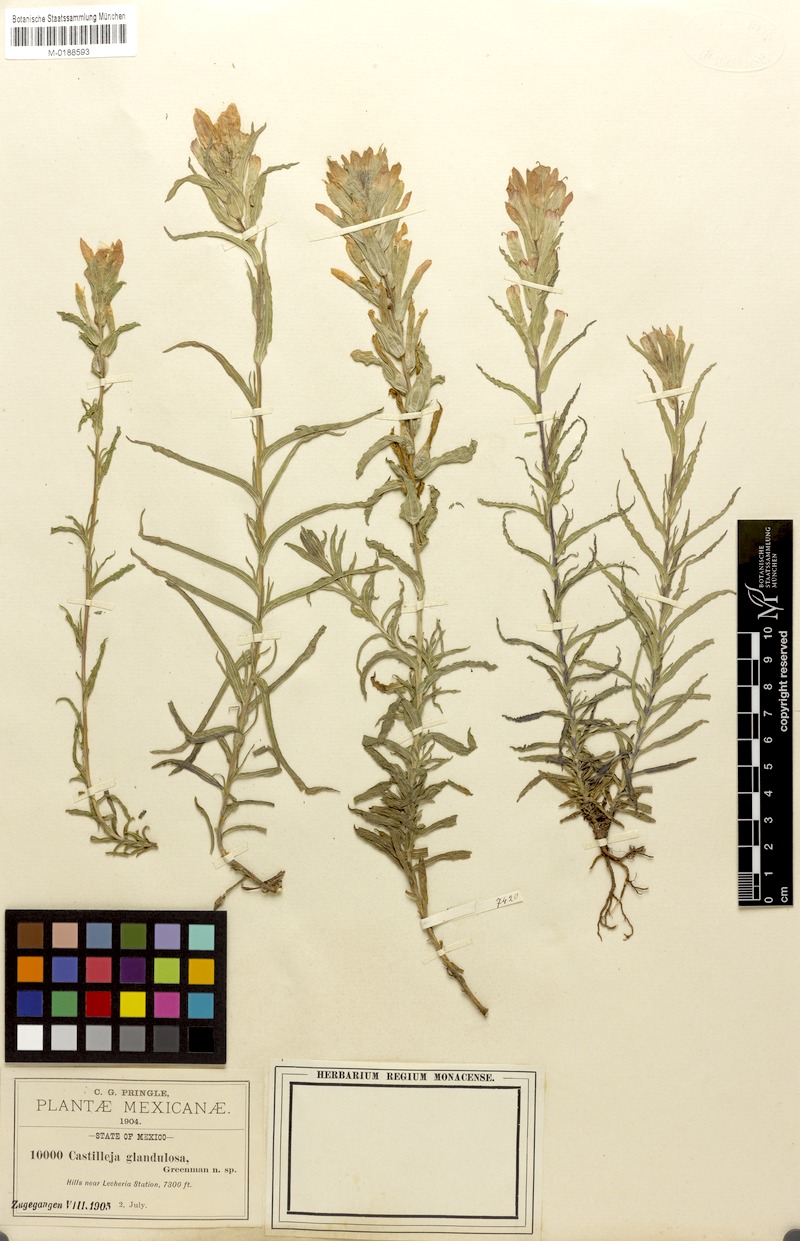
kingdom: Plantae
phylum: Tracheophyta
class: Magnoliopsida
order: Lamiales
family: Orobanchaceae
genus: Castilleja
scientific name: Castilleja scorzonerifolia
